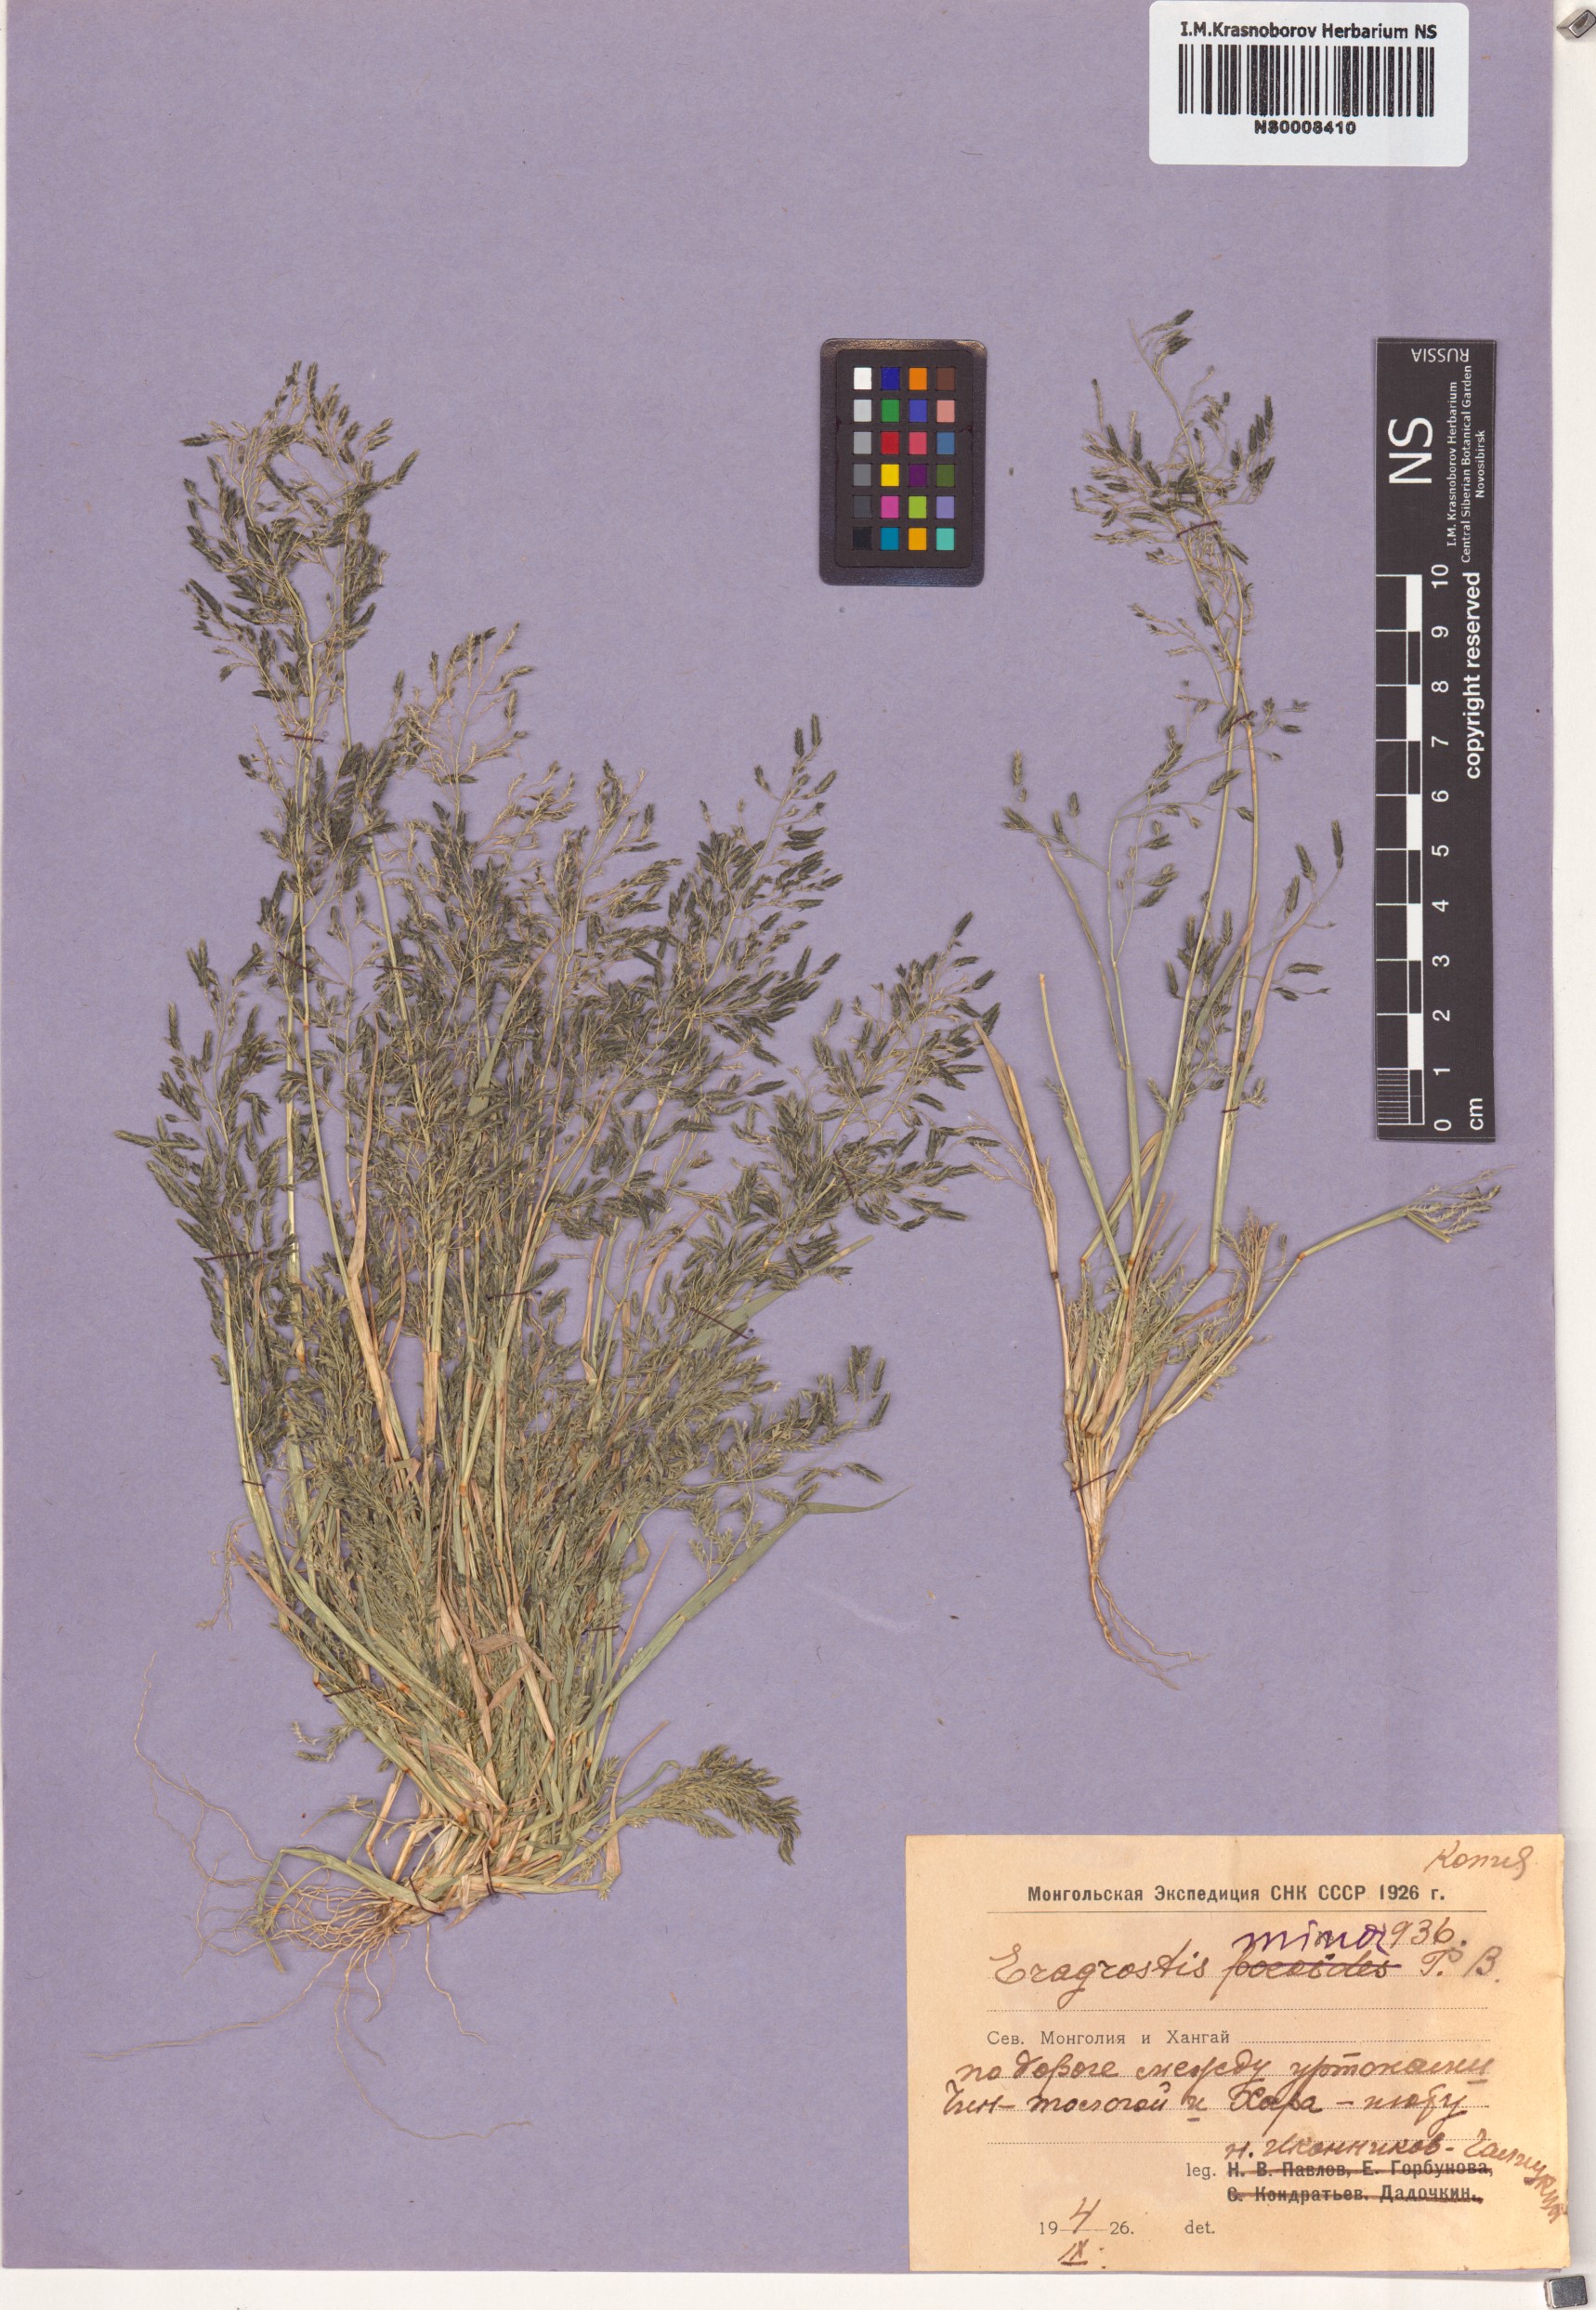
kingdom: Plantae
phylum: Tracheophyta
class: Liliopsida
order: Poales
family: Poaceae
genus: Eragrostis
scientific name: Eragrostis minor
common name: Small love-grass
